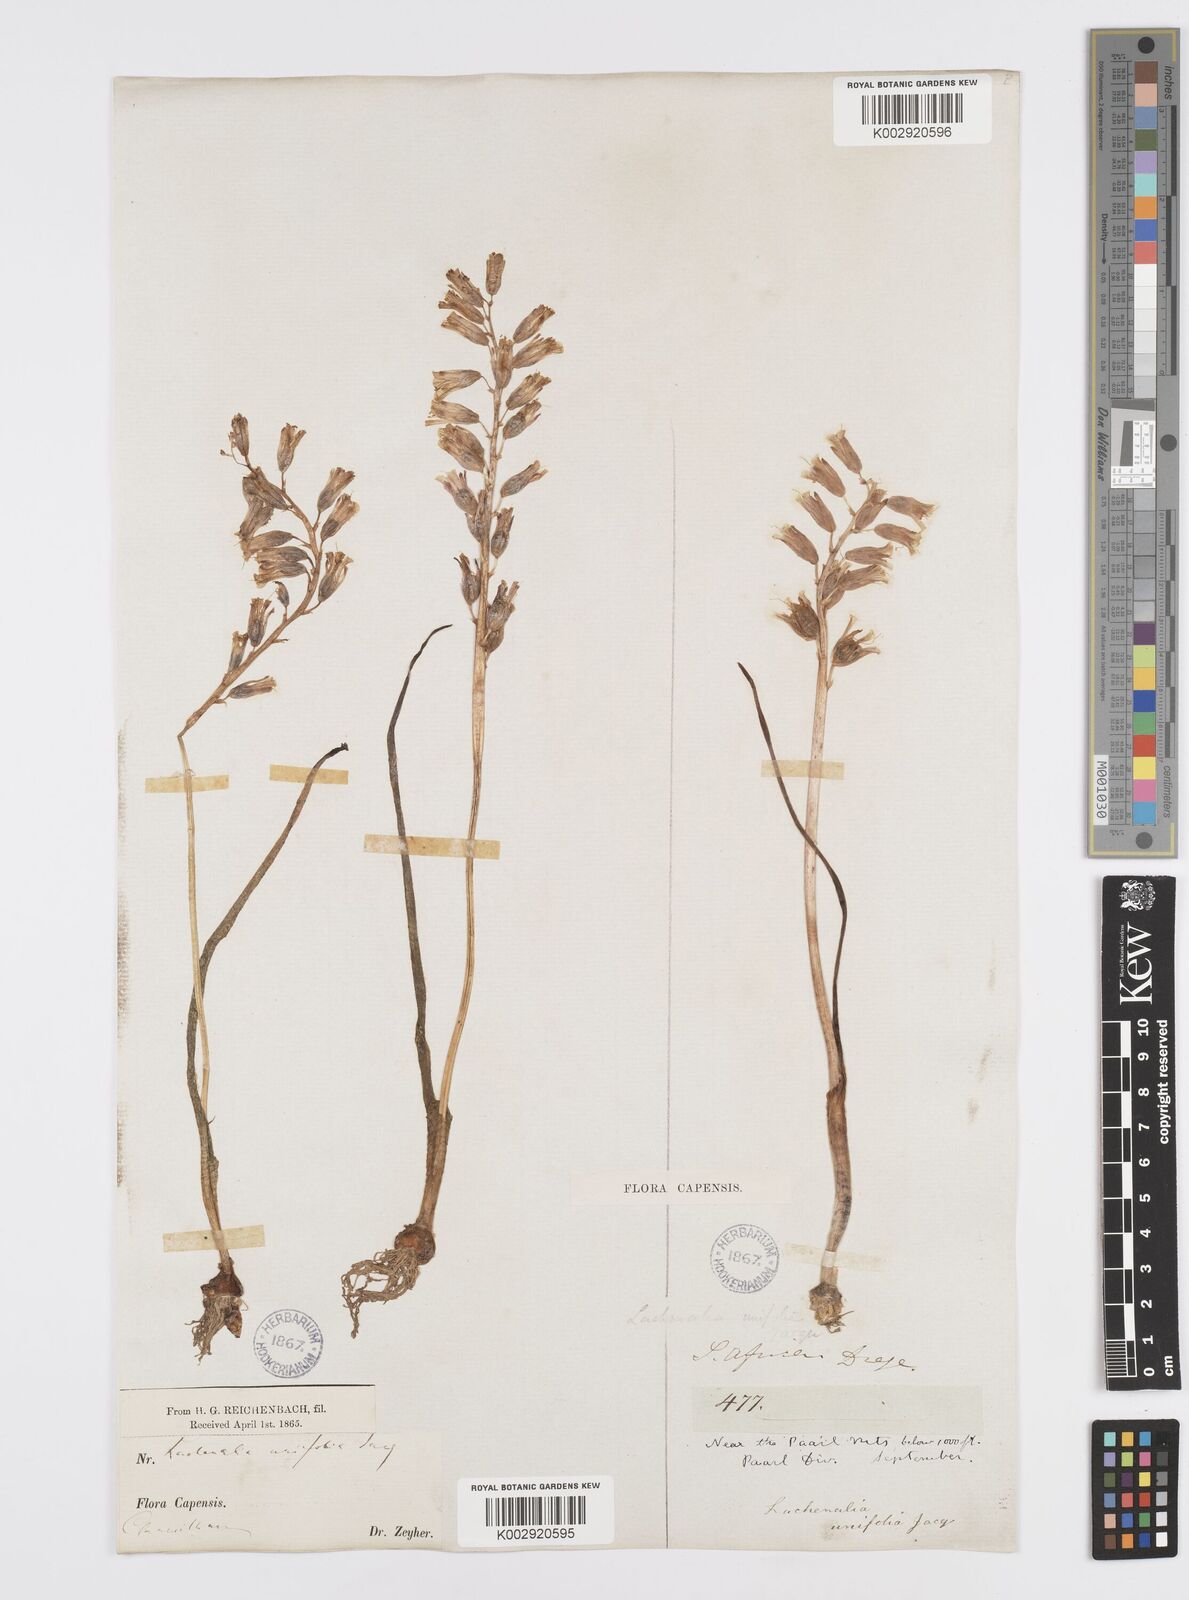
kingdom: Plantae
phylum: Tracheophyta
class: Liliopsida
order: Asparagales
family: Asparagaceae
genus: Lachenalia
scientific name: Lachenalia unifolia
